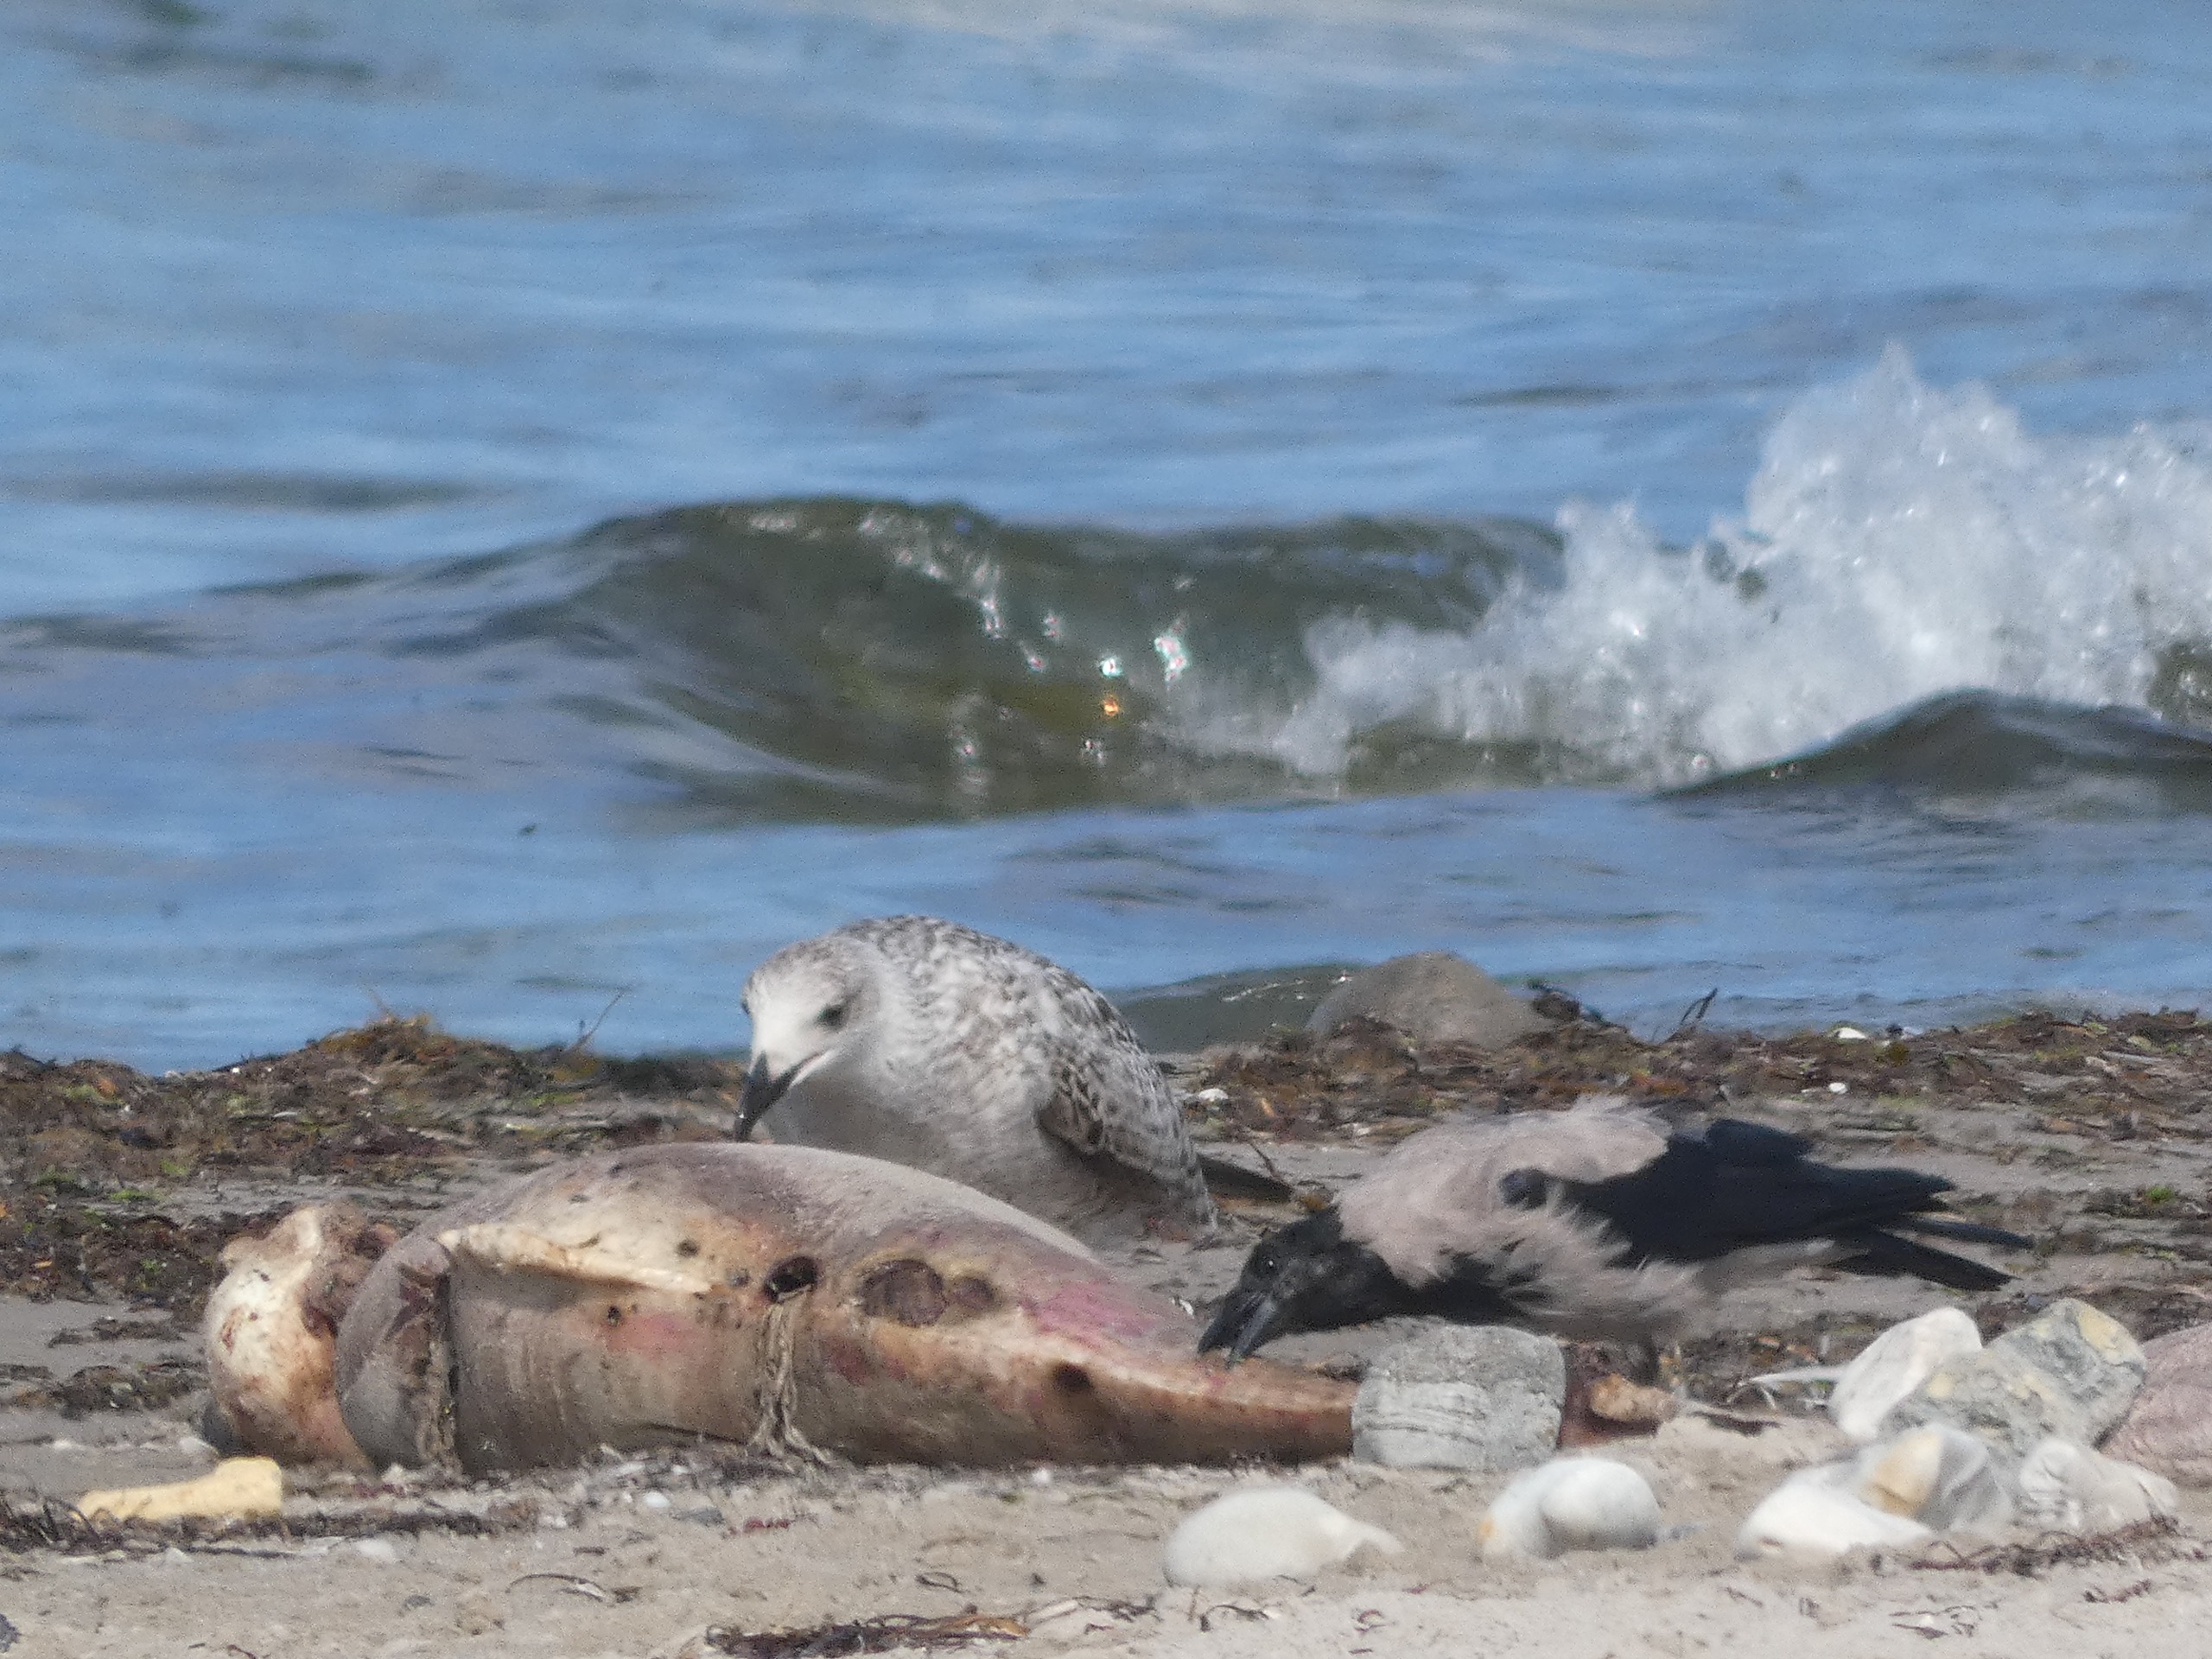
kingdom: Animalia
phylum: Chordata
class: Aves
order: Passeriformes
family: Corvidae
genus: Corvus
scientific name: Corvus cornix
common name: Gråkrage
